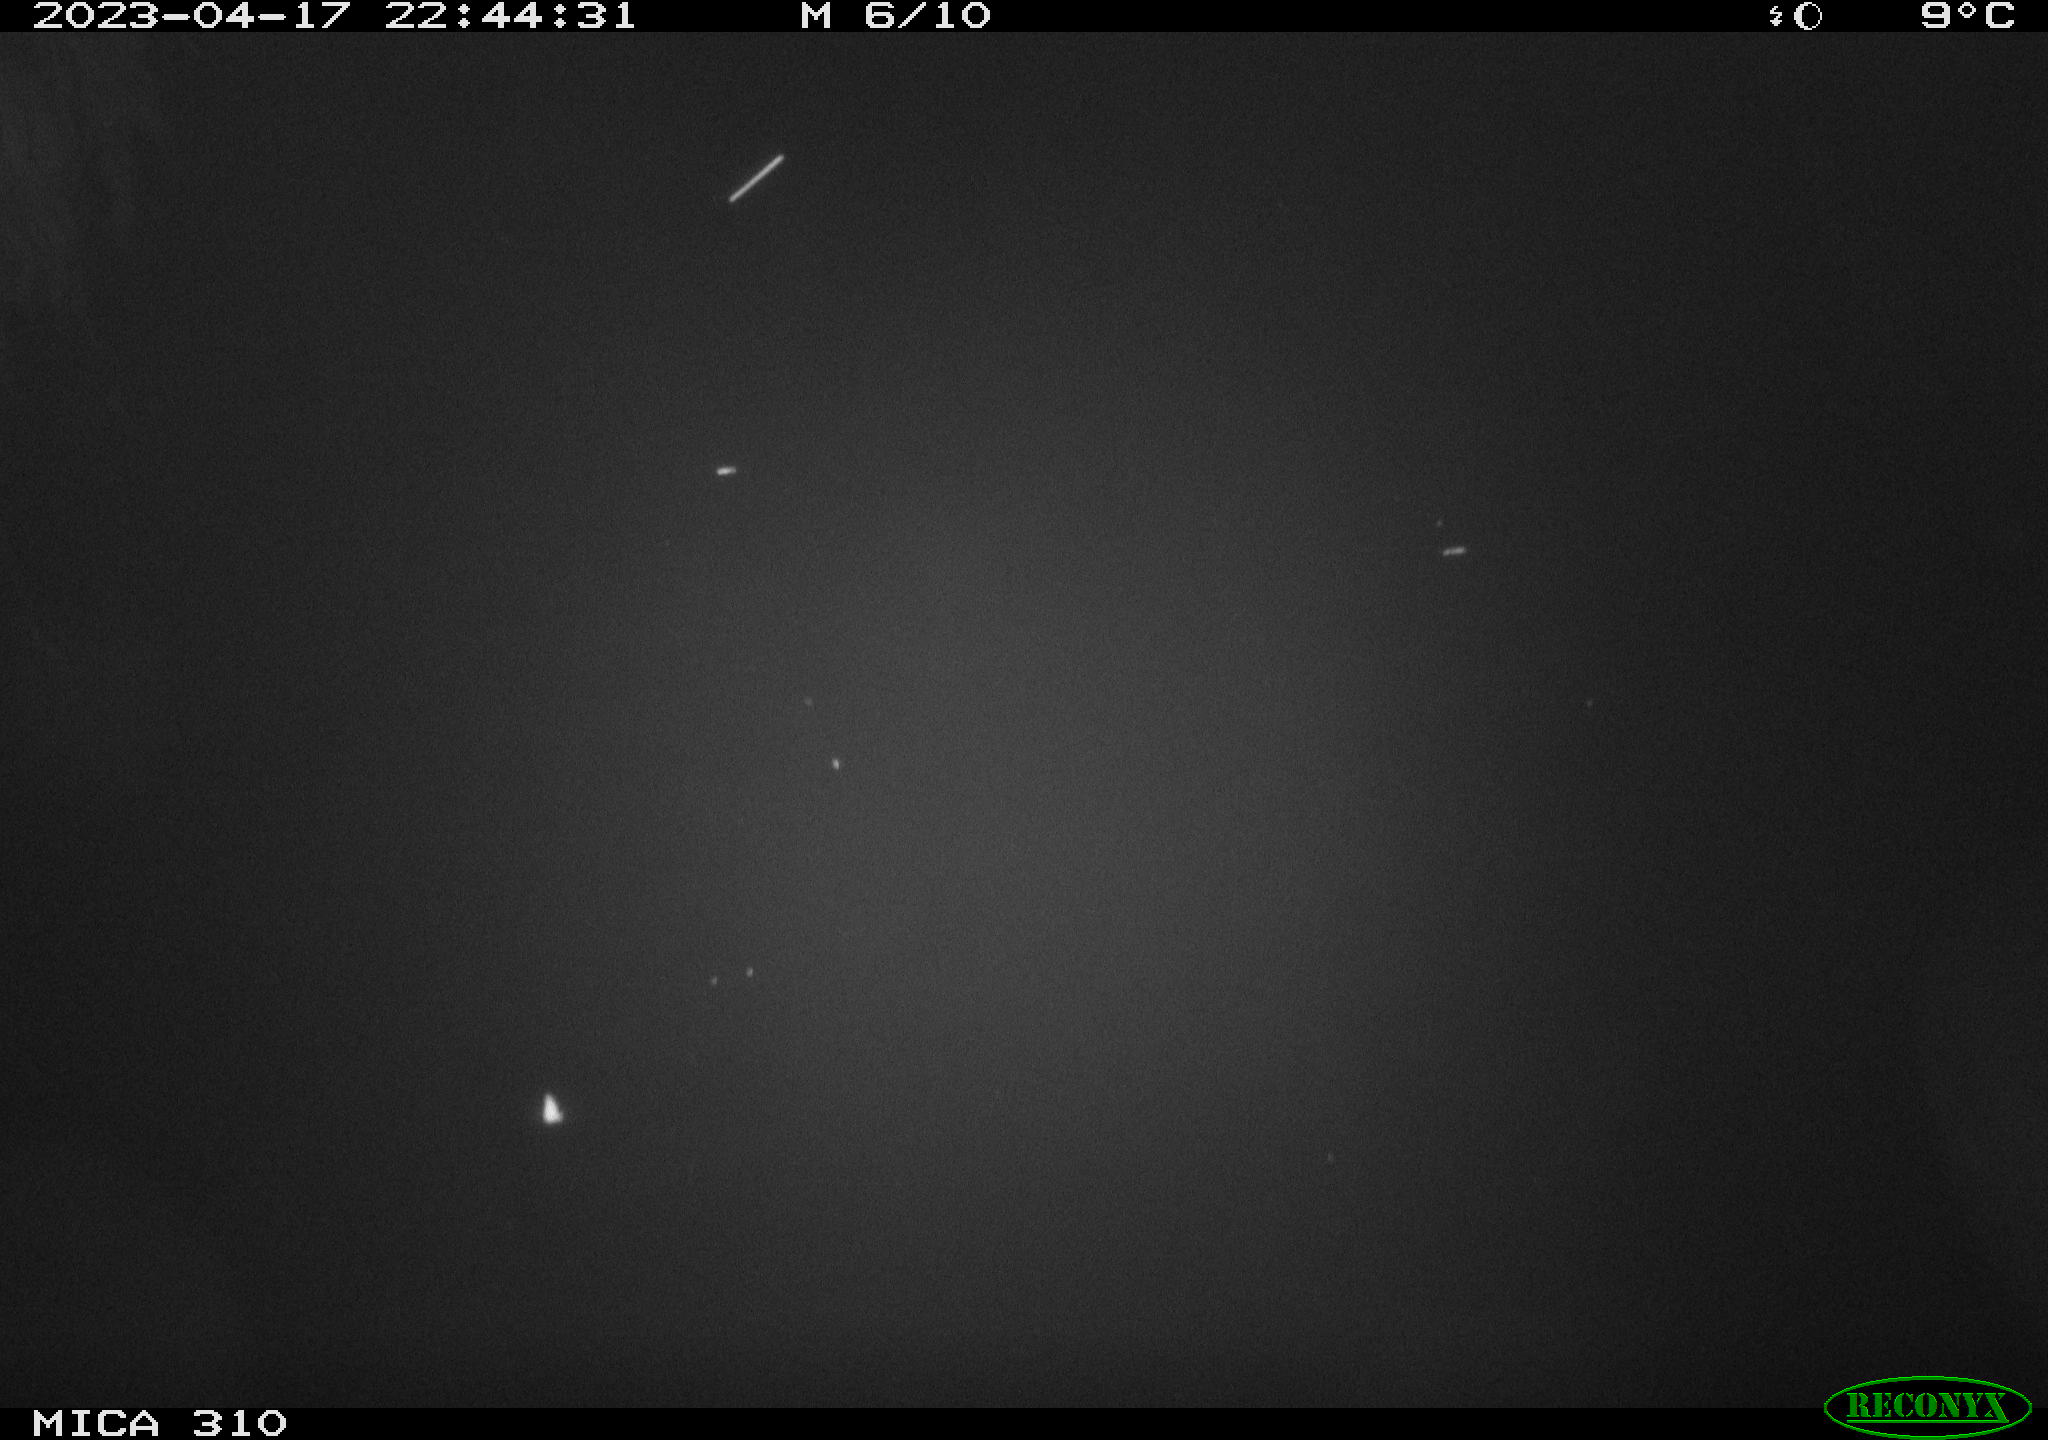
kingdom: Animalia
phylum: Chordata
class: Aves
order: Anseriformes
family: Anatidae
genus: Anas
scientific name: Anas
